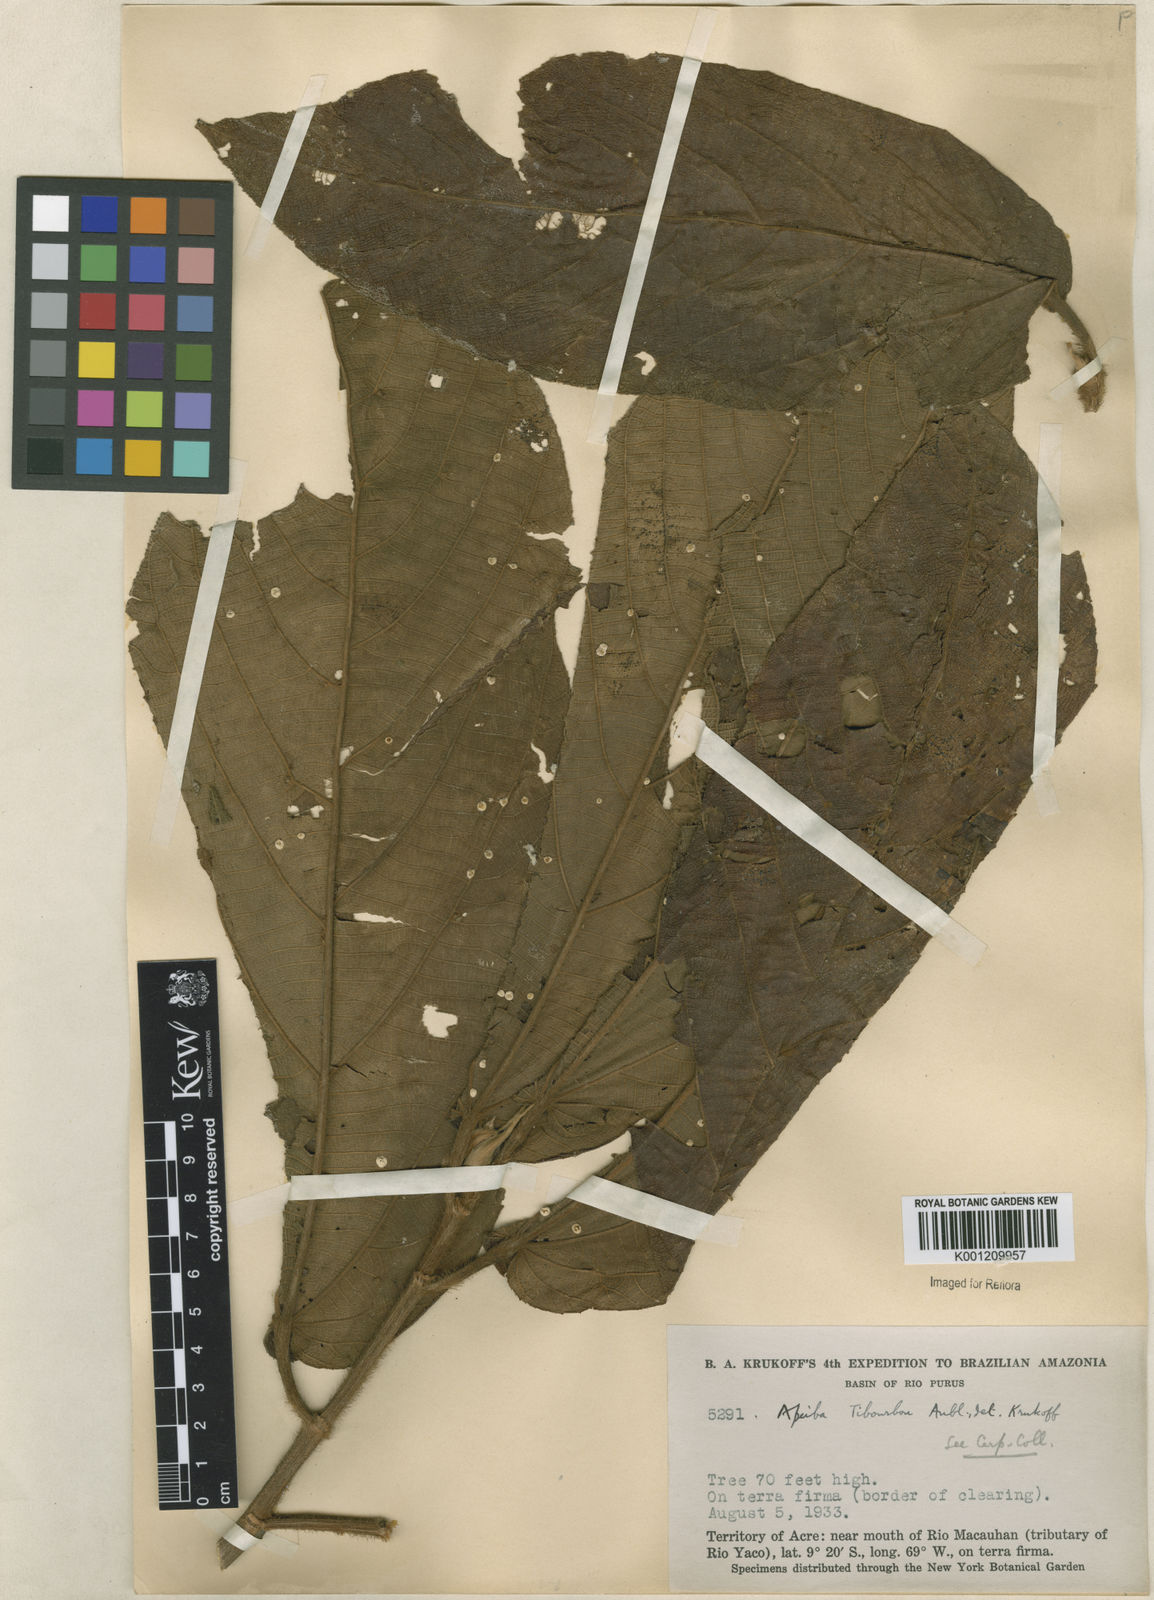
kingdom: Plantae
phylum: Tracheophyta
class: Magnoliopsida
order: Malvales
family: Malvaceae
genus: Apeiba
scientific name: Apeiba tibourbou
